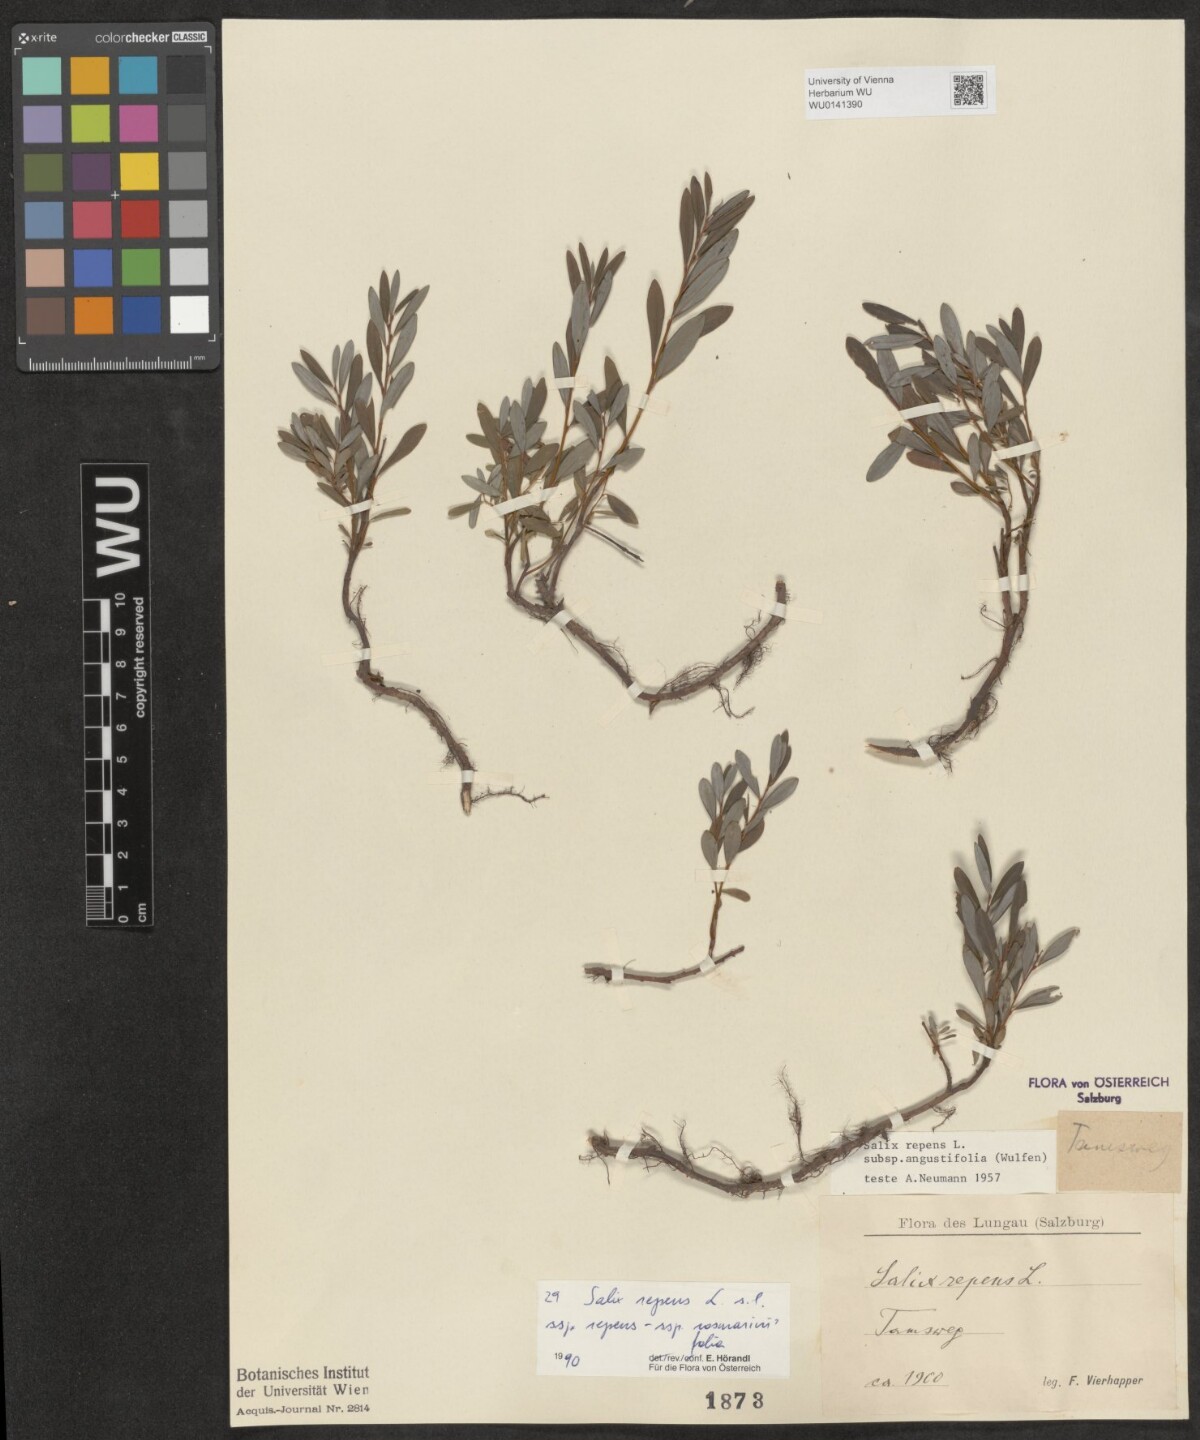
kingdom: Plantae
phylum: Tracheophyta
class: Magnoliopsida
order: Malpighiales
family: Salicaceae
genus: Salix
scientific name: Salix repens
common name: Creeping willow
